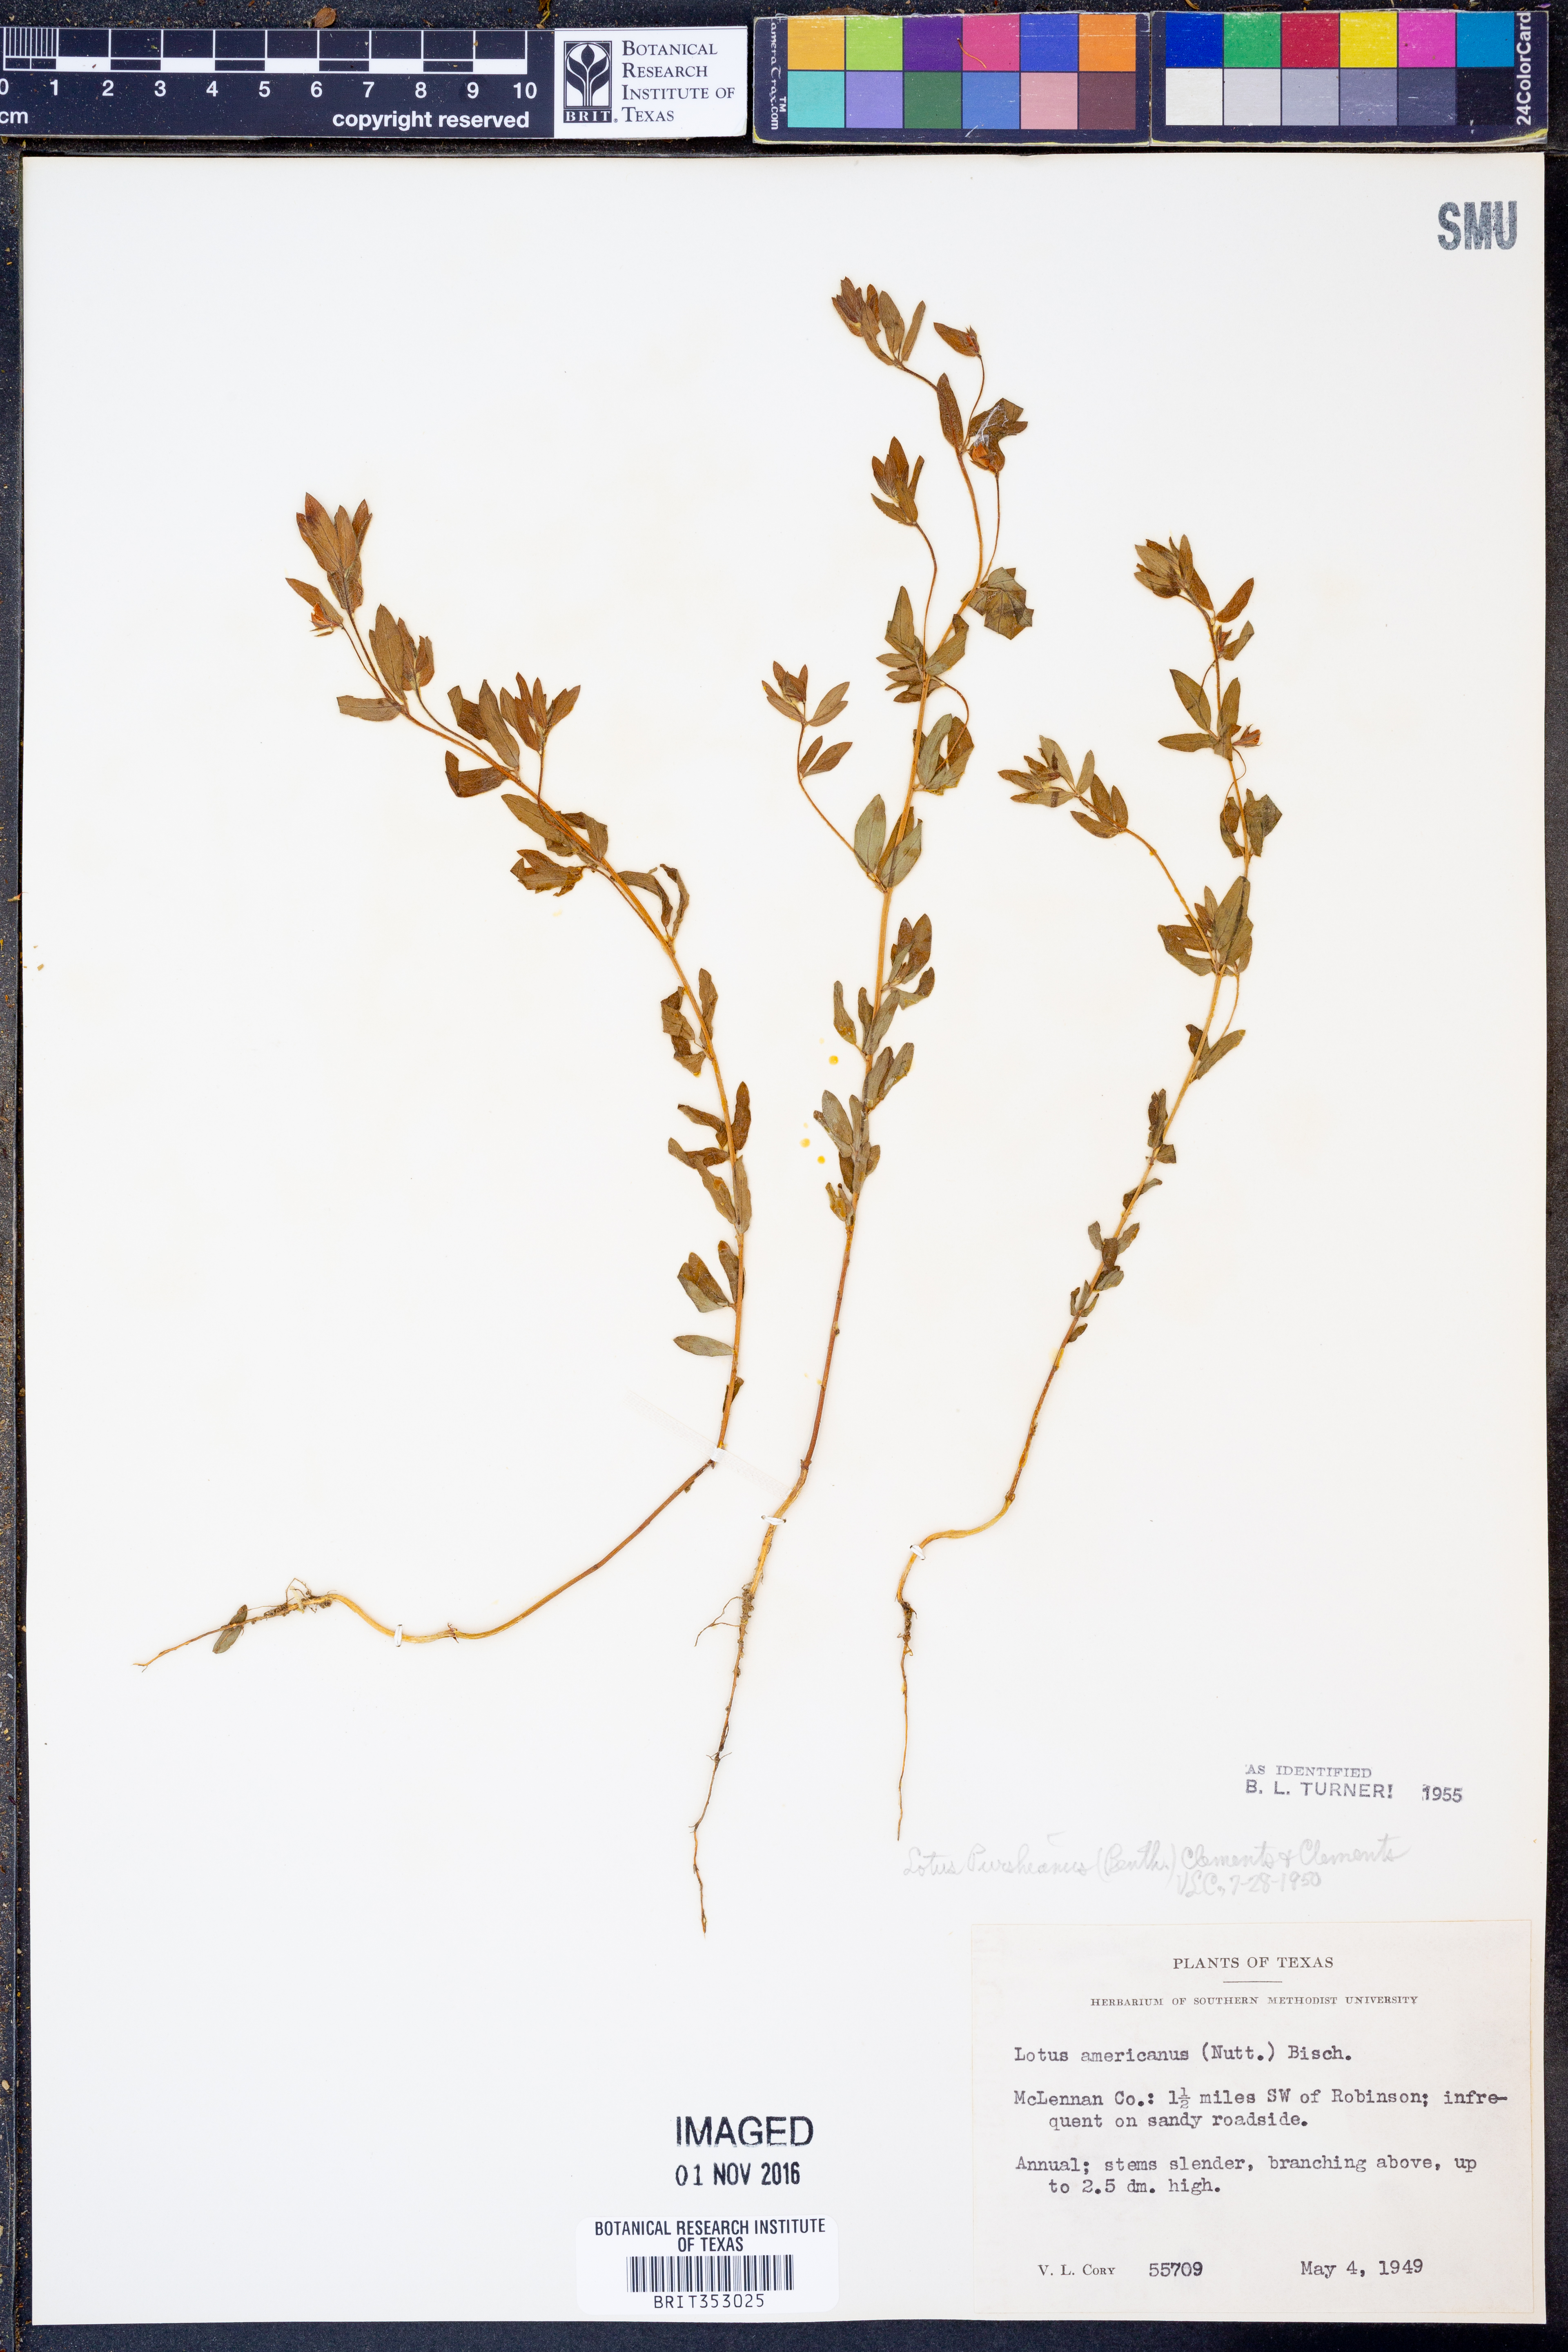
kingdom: Plantae
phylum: Tracheophyta
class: Magnoliopsida
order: Fabales
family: Fabaceae
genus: Acmispon
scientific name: Acmispon americanus
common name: American bird's-foot trefoil
